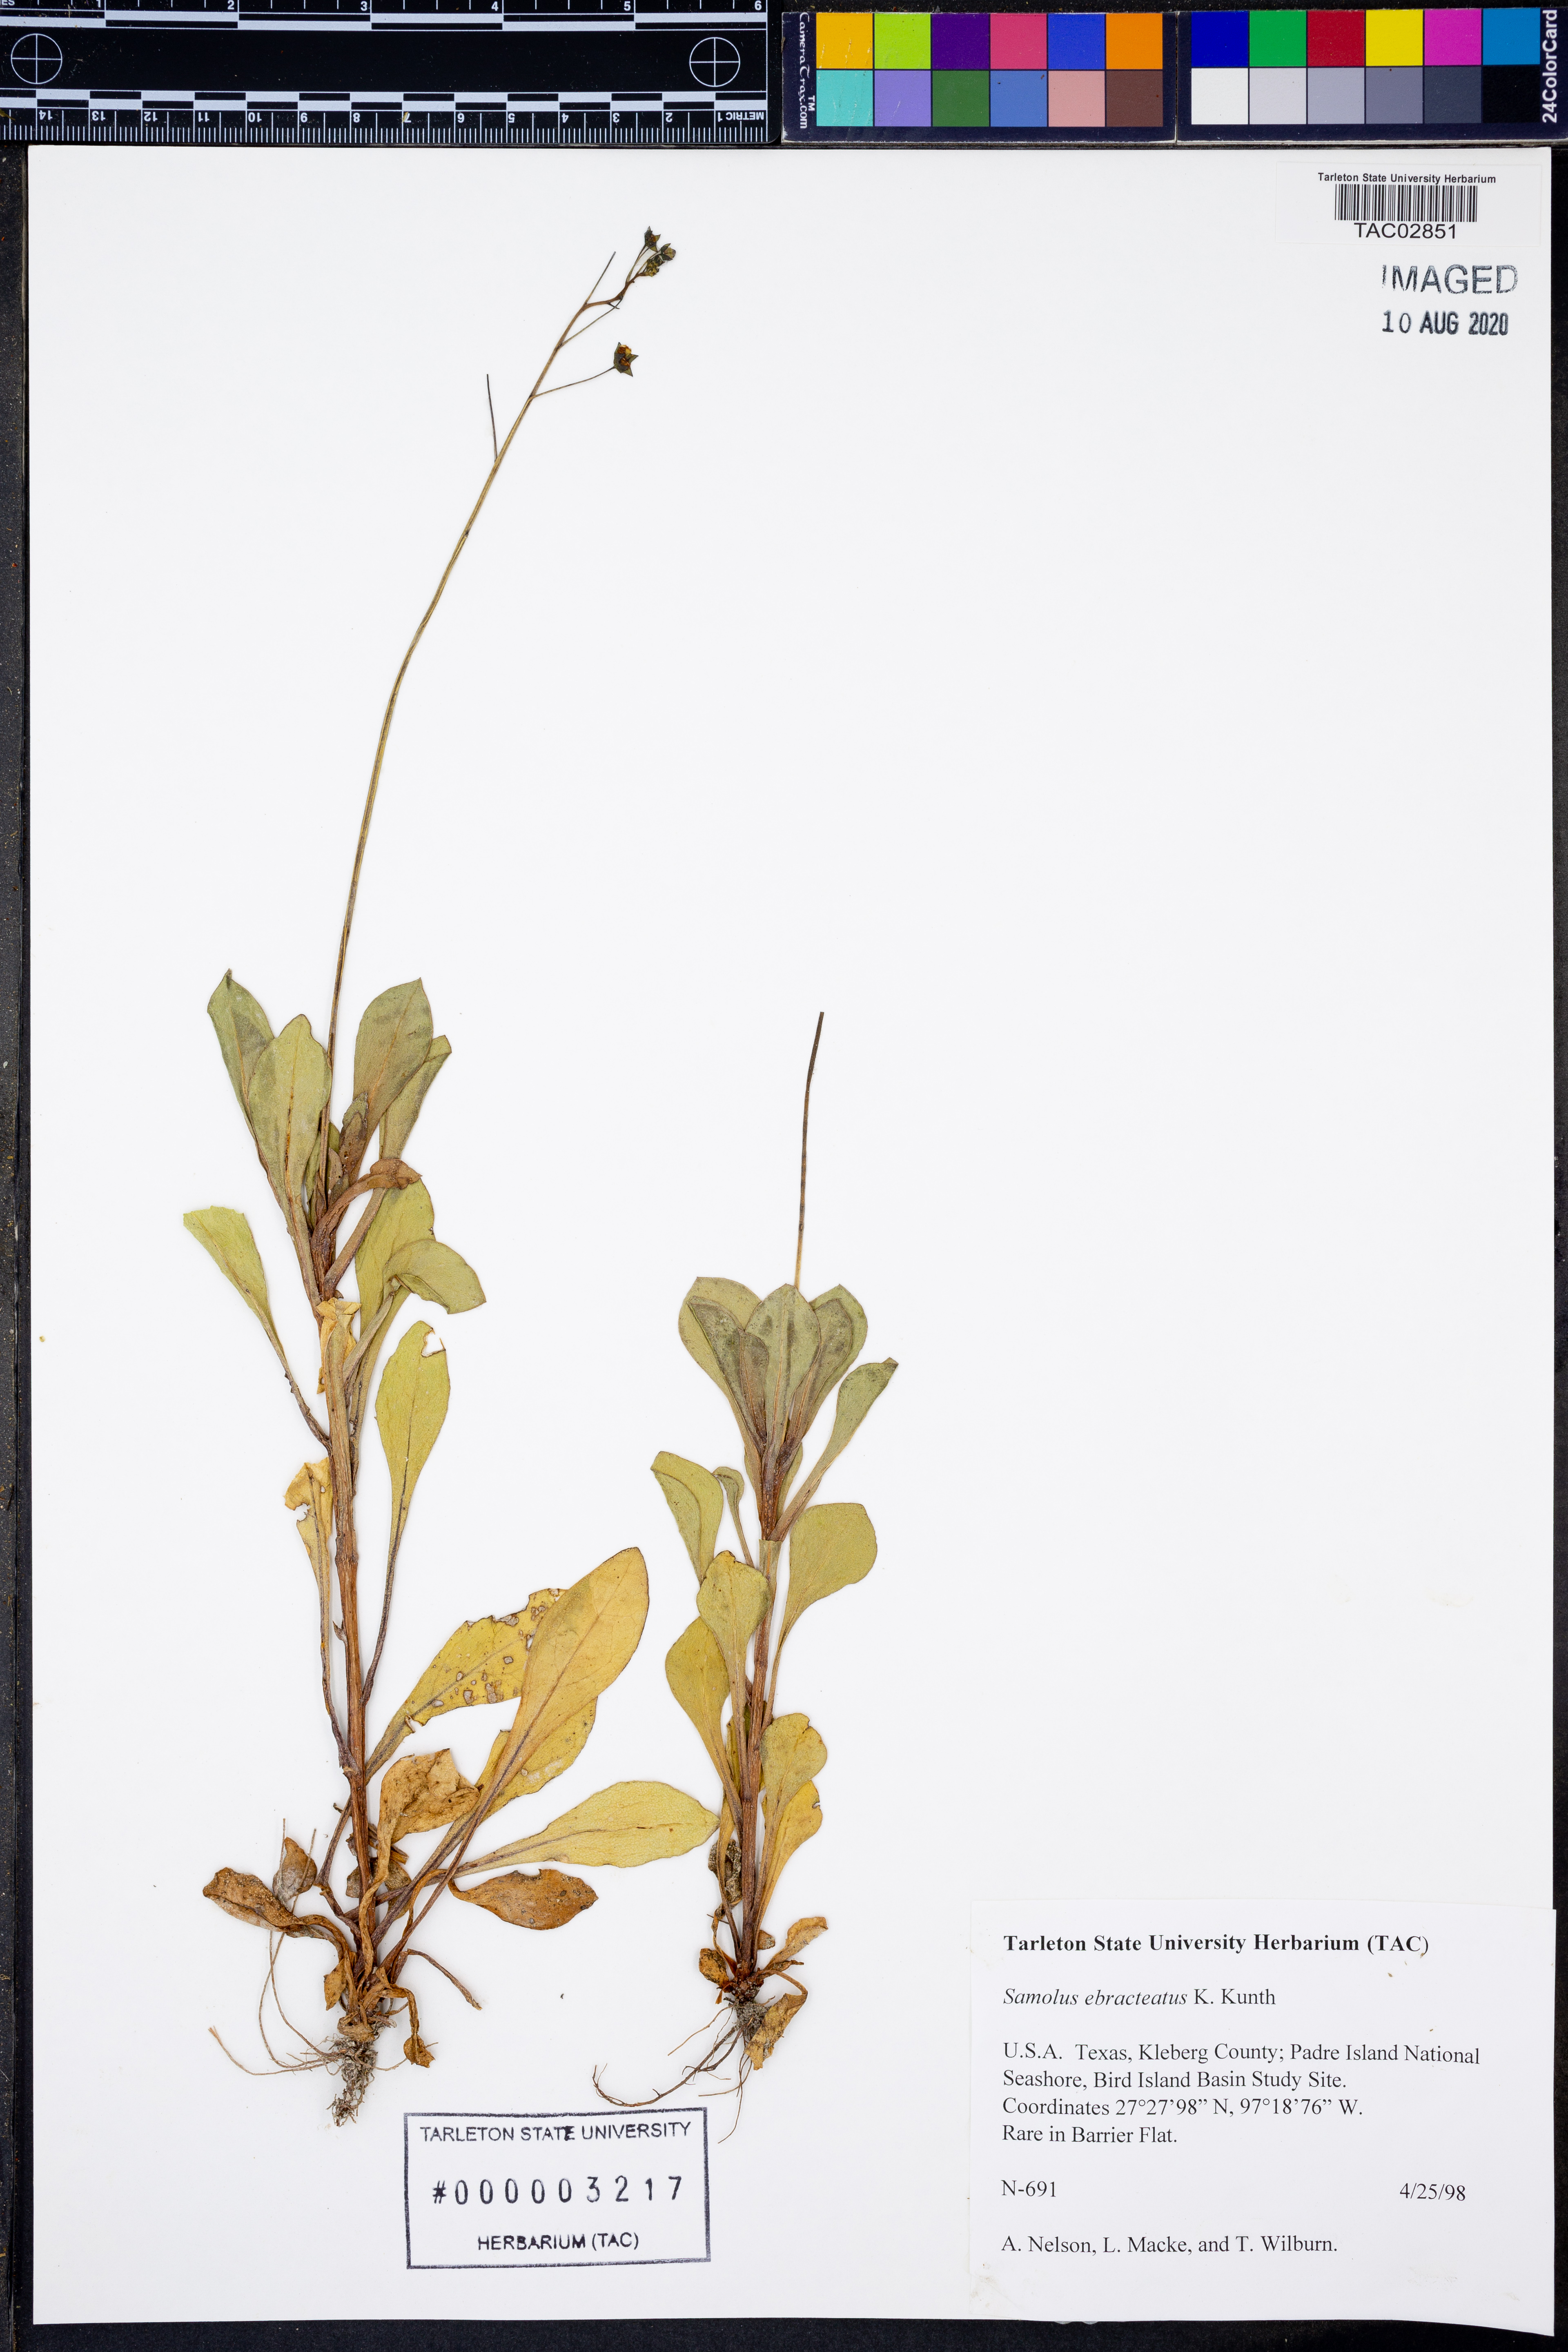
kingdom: Plantae
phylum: Tracheophyta
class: Magnoliopsida
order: Ericales
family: Primulaceae
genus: Samolus
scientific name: Samolus ebracteatus
